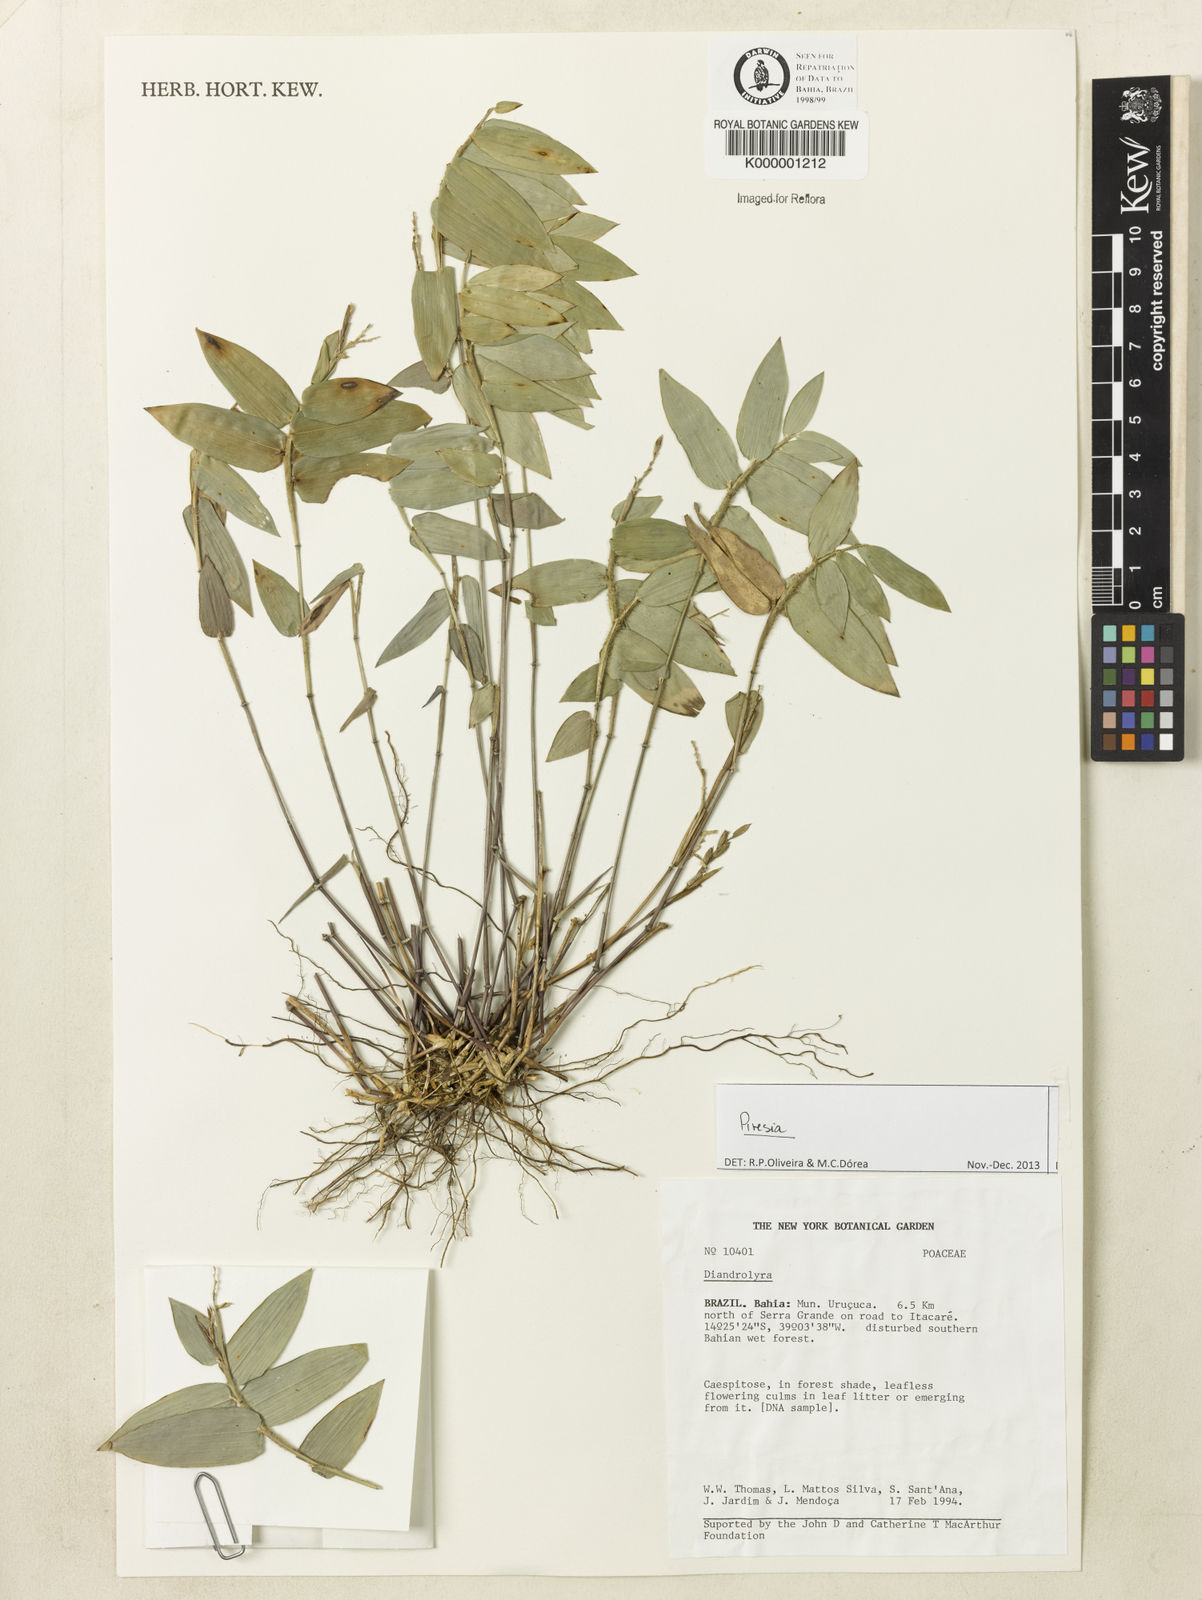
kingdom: Plantae
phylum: Tracheophyta
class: Liliopsida
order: Poales
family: Poaceae
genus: Diandrolyra
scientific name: Diandrolyra
